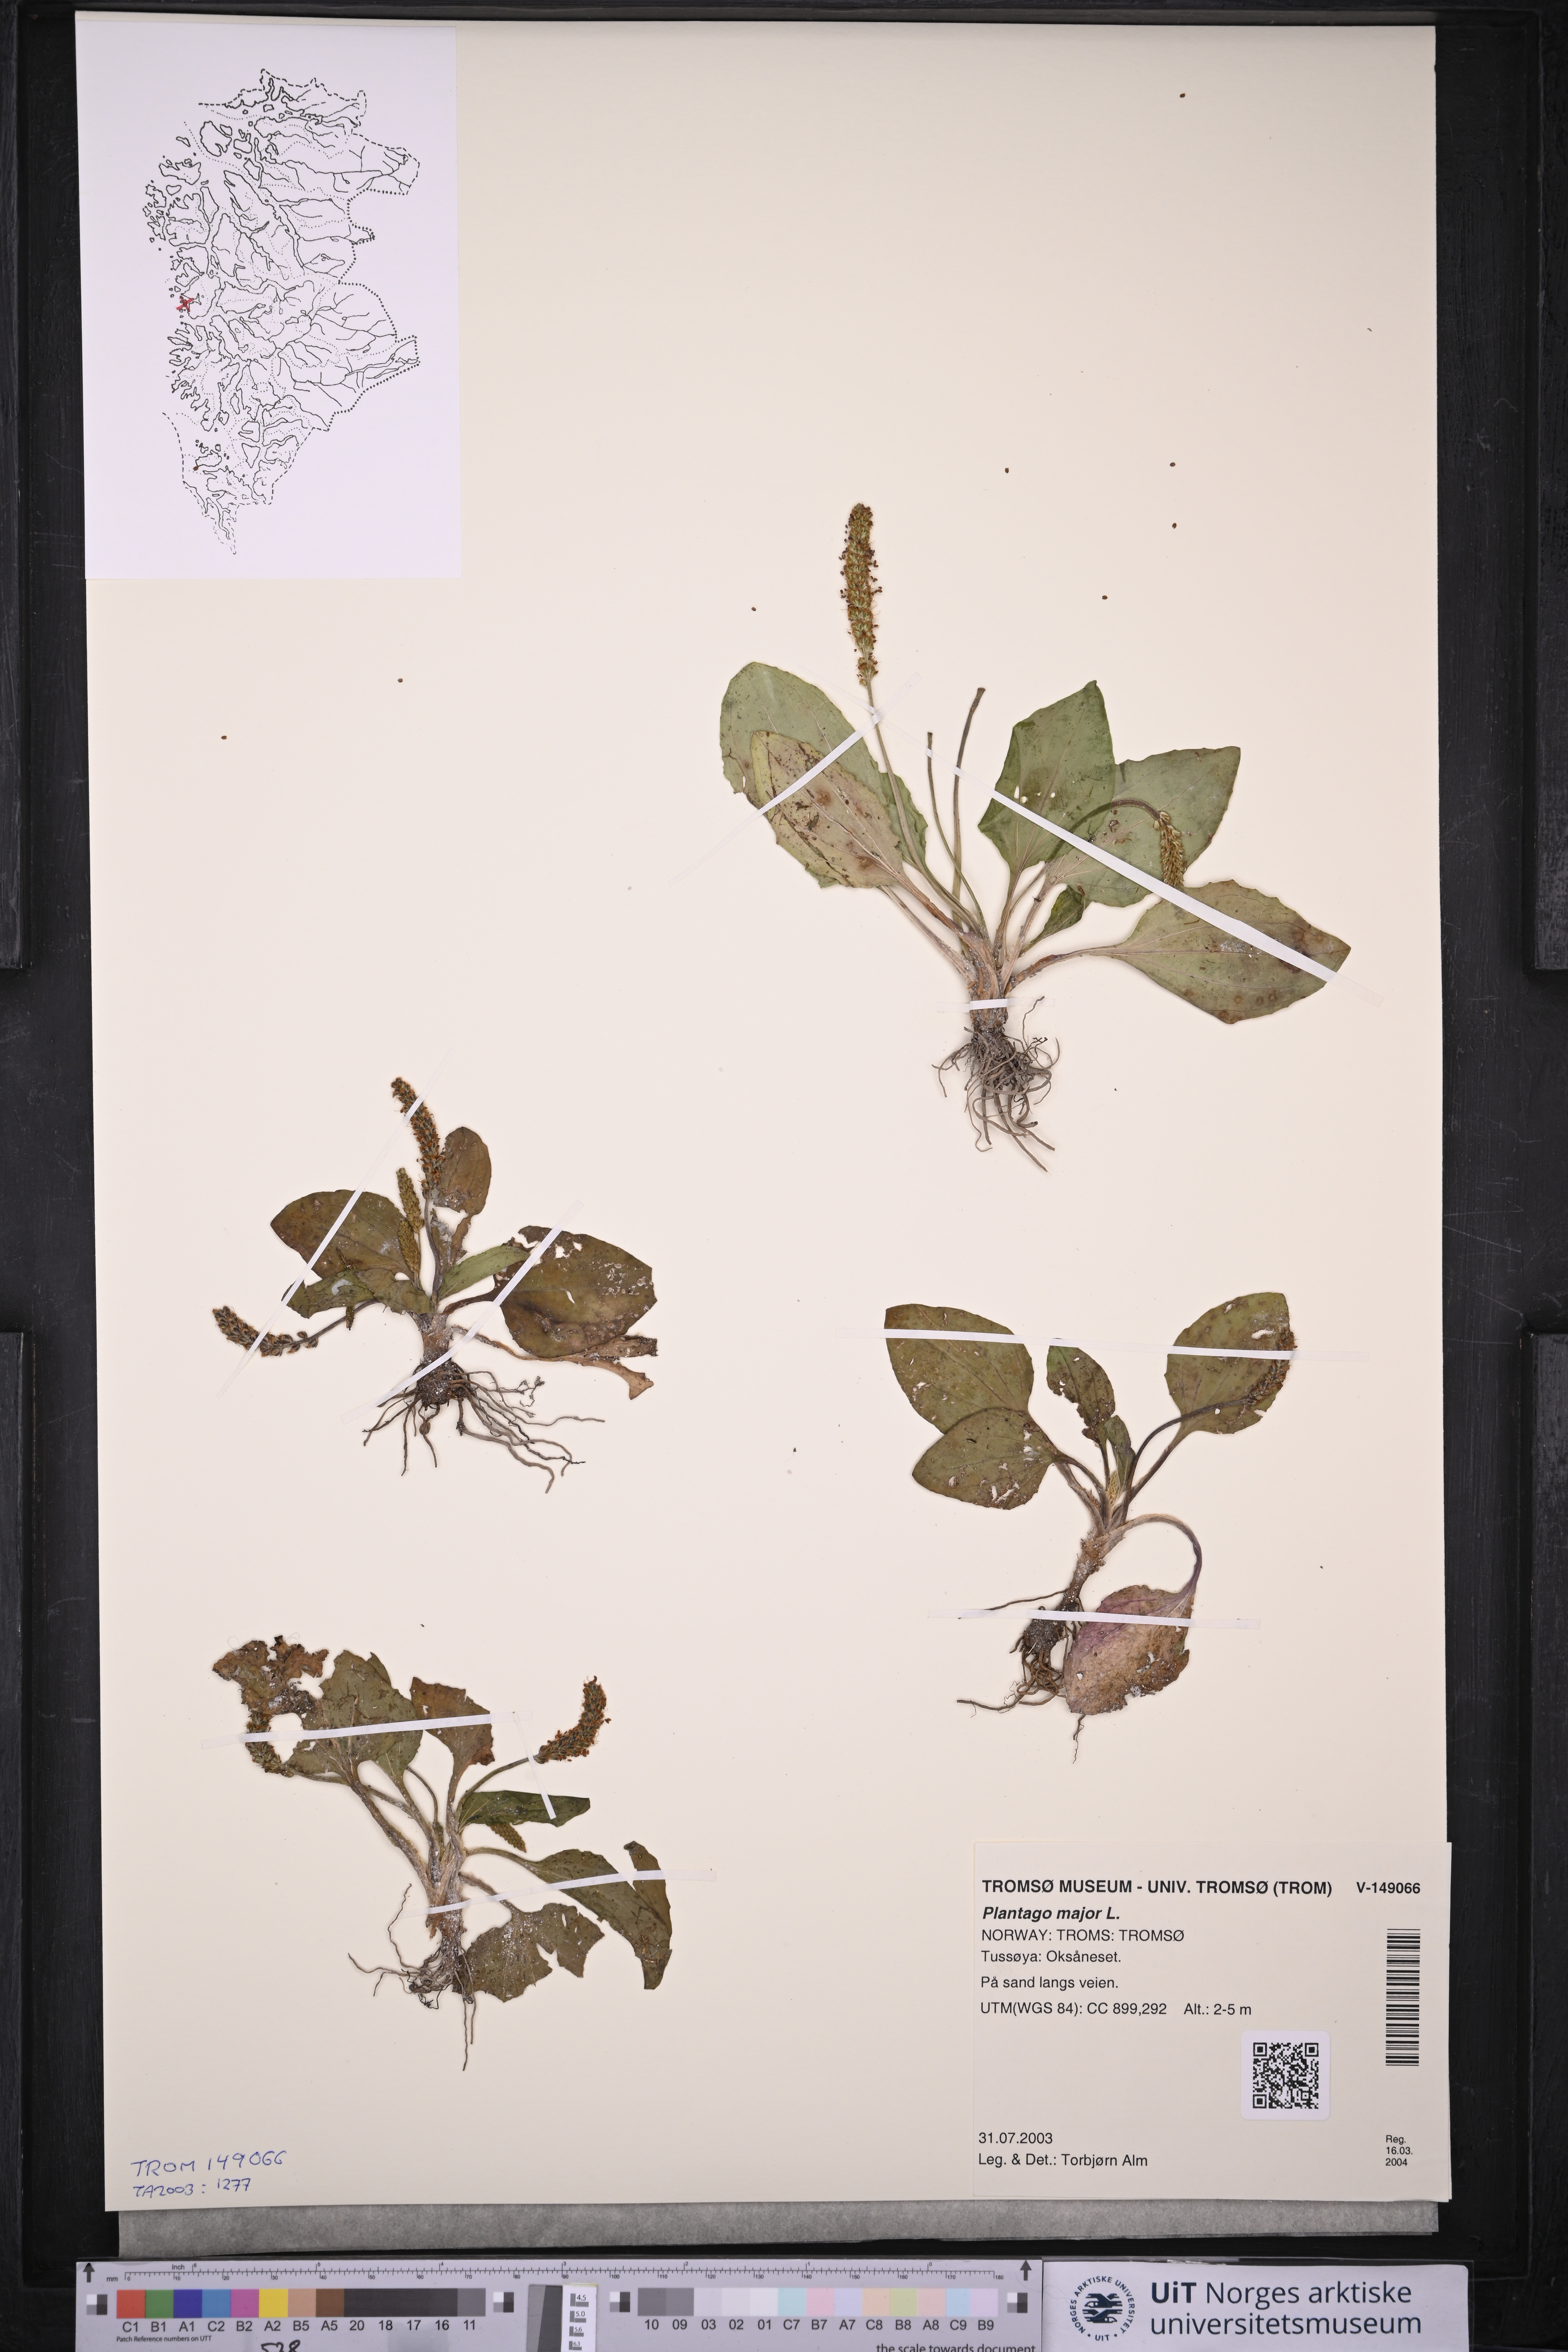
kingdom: Plantae
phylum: Tracheophyta
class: Magnoliopsida
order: Lamiales
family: Plantaginaceae
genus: Plantago
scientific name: Plantago major
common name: Common plantain
